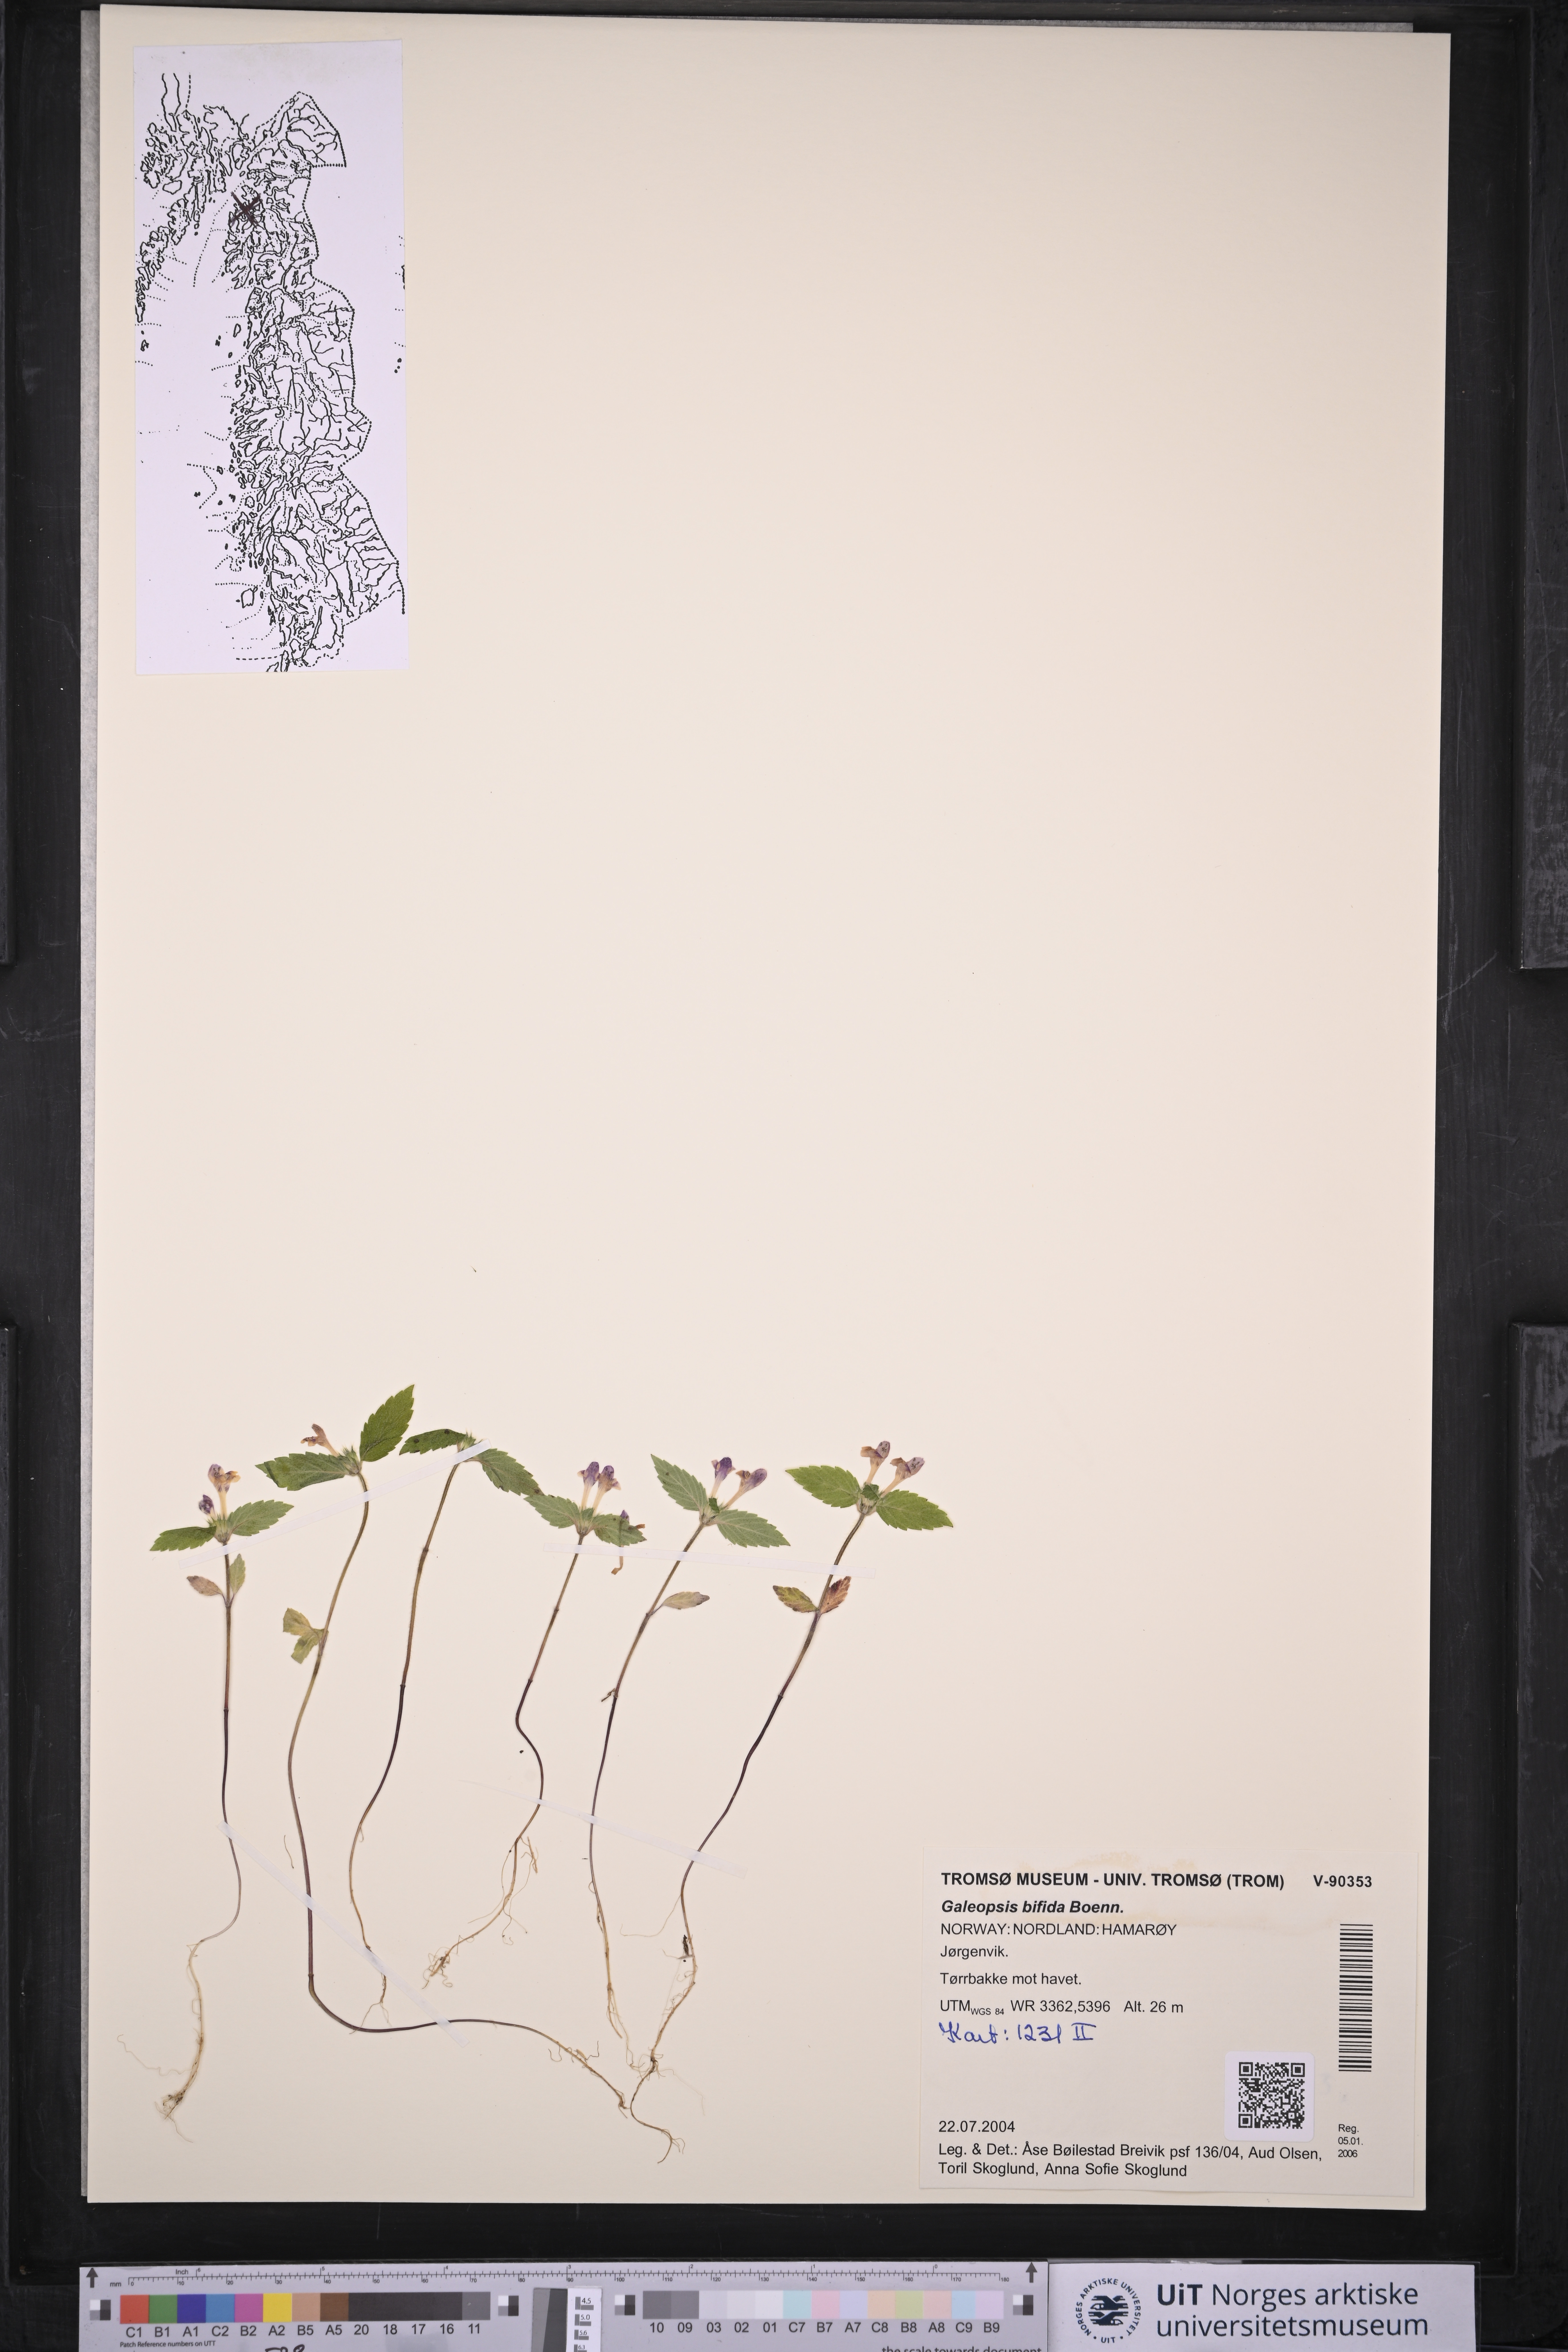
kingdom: Plantae
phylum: Tracheophyta
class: Magnoliopsida
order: Lamiales
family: Lamiaceae
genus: Galeopsis
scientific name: Galeopsis bifida
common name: Bifid hemp-nettle
